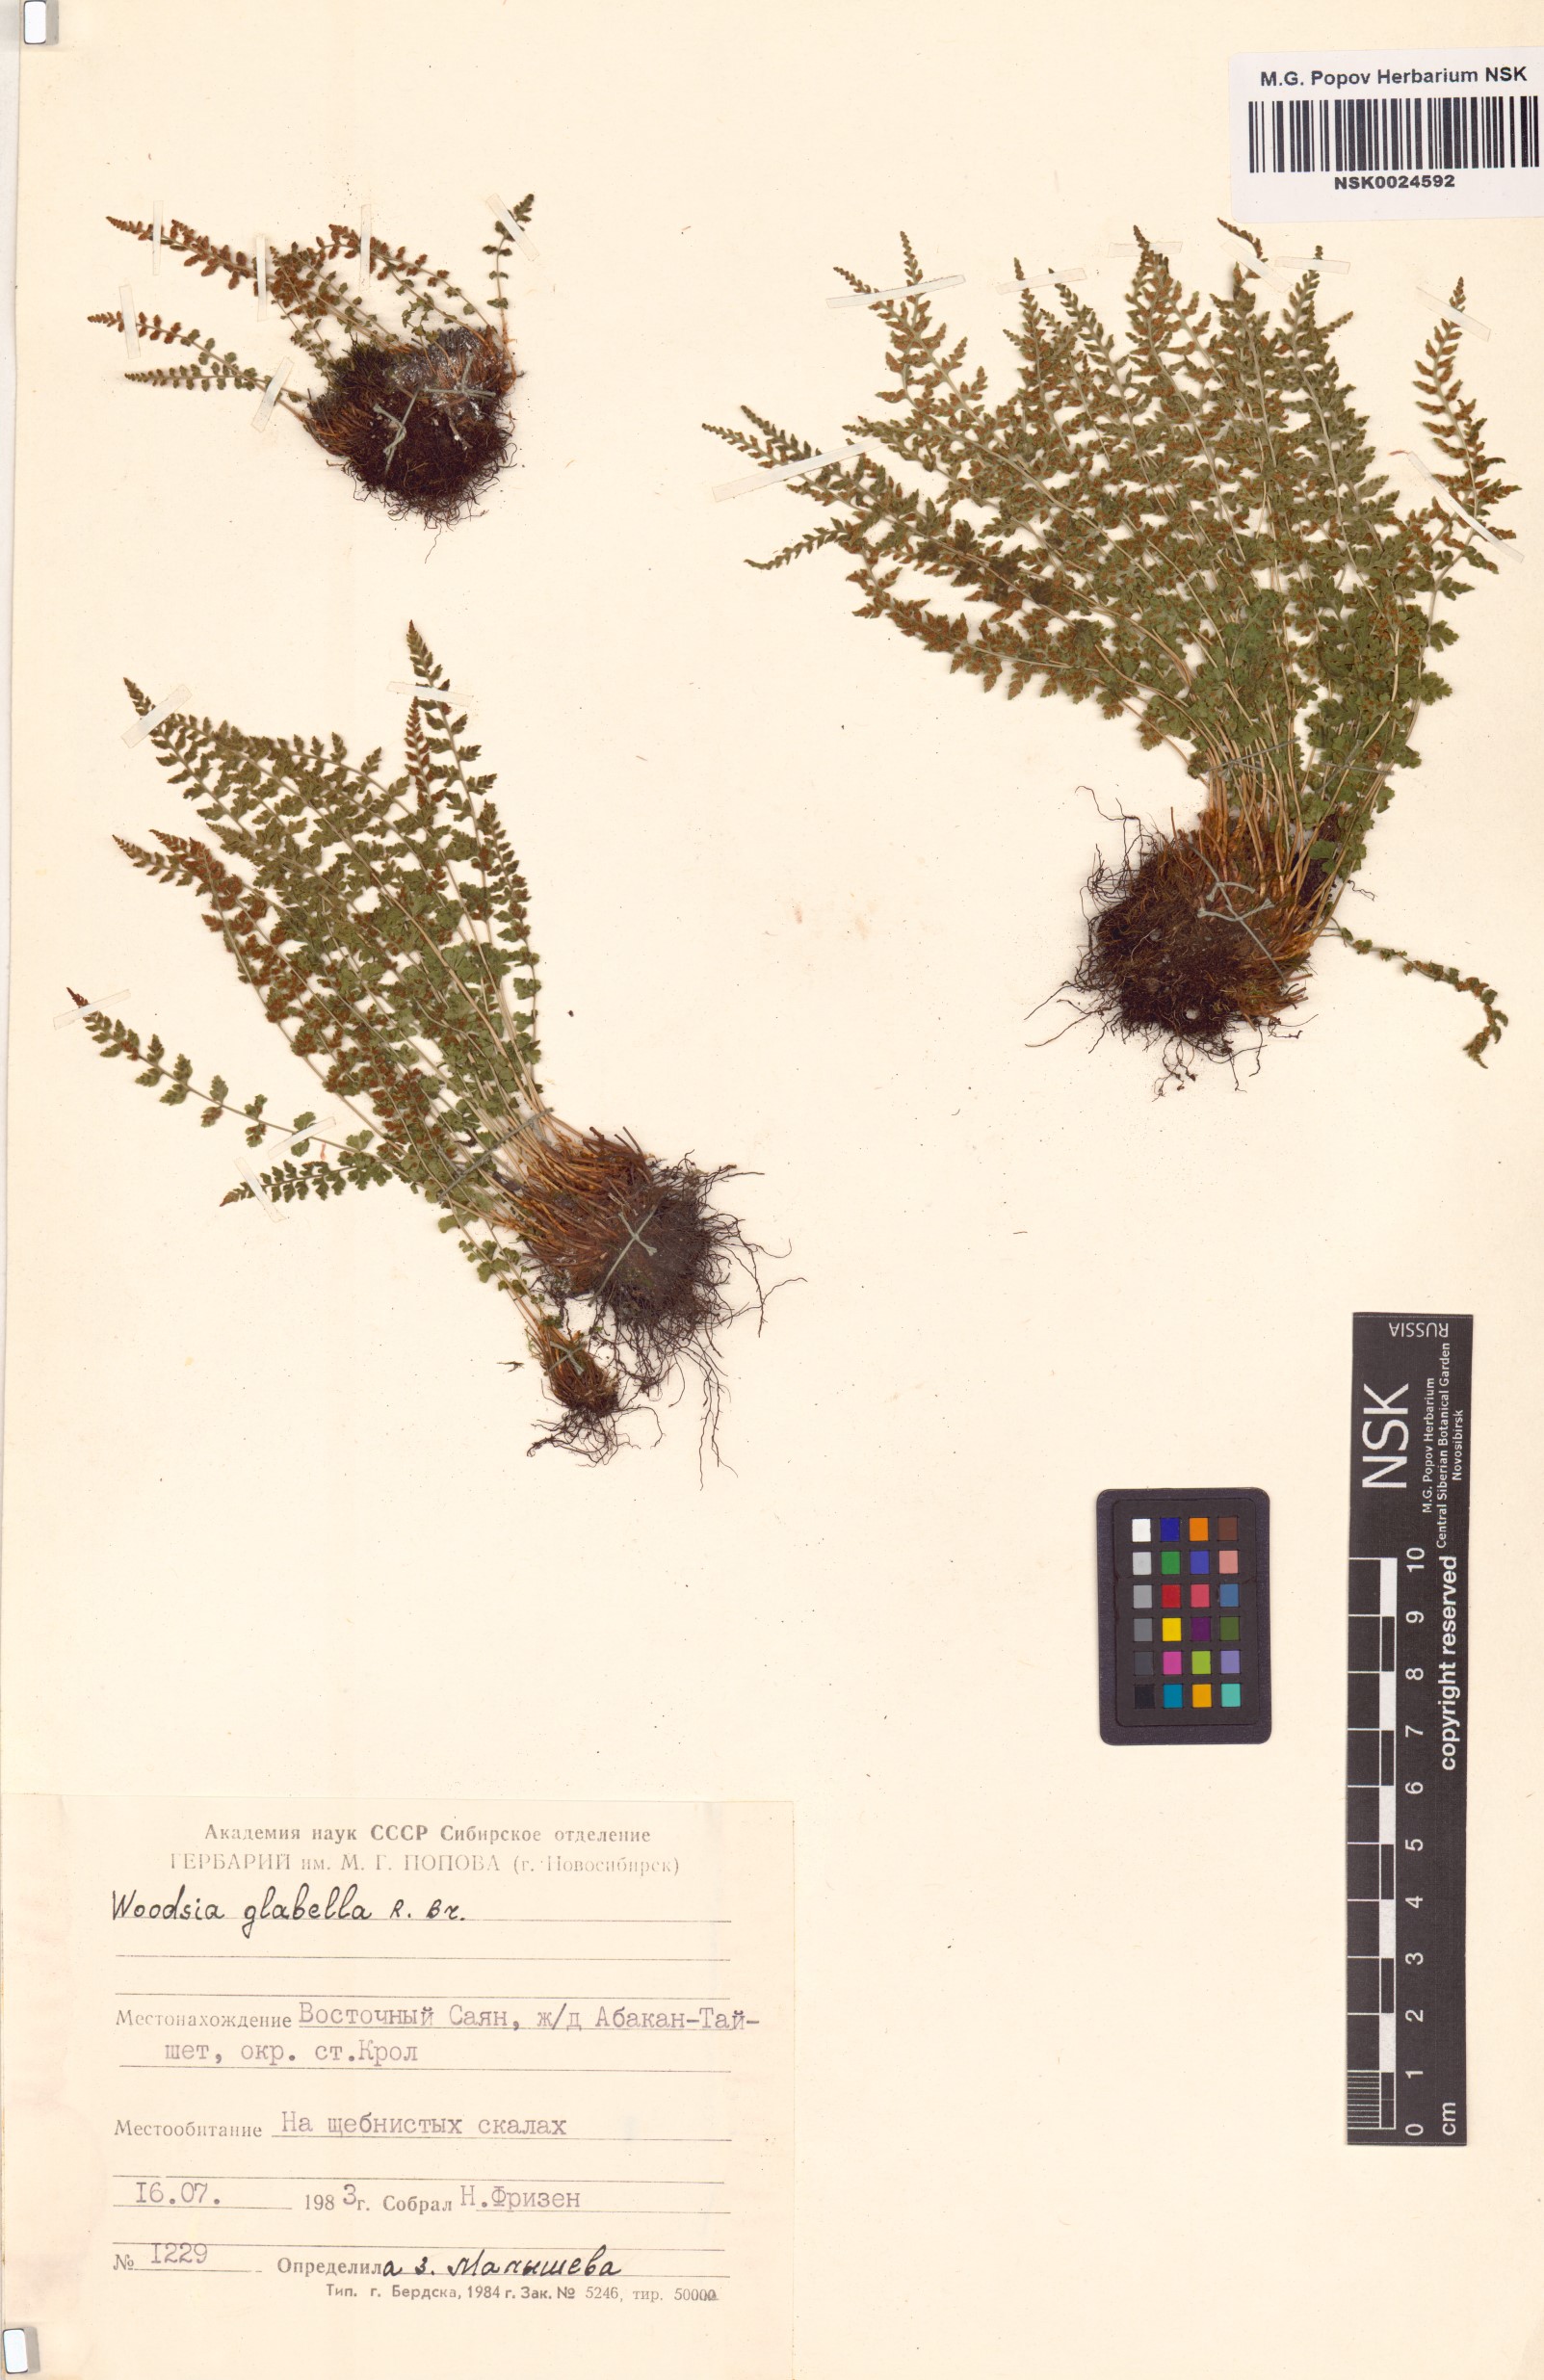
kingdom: Plantae
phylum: Tracheophyta
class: Polypodiopsida
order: Polypodiales
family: Woodsiaceae
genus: Woodsia
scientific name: Woodsia glabella
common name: Smooth woodsia
